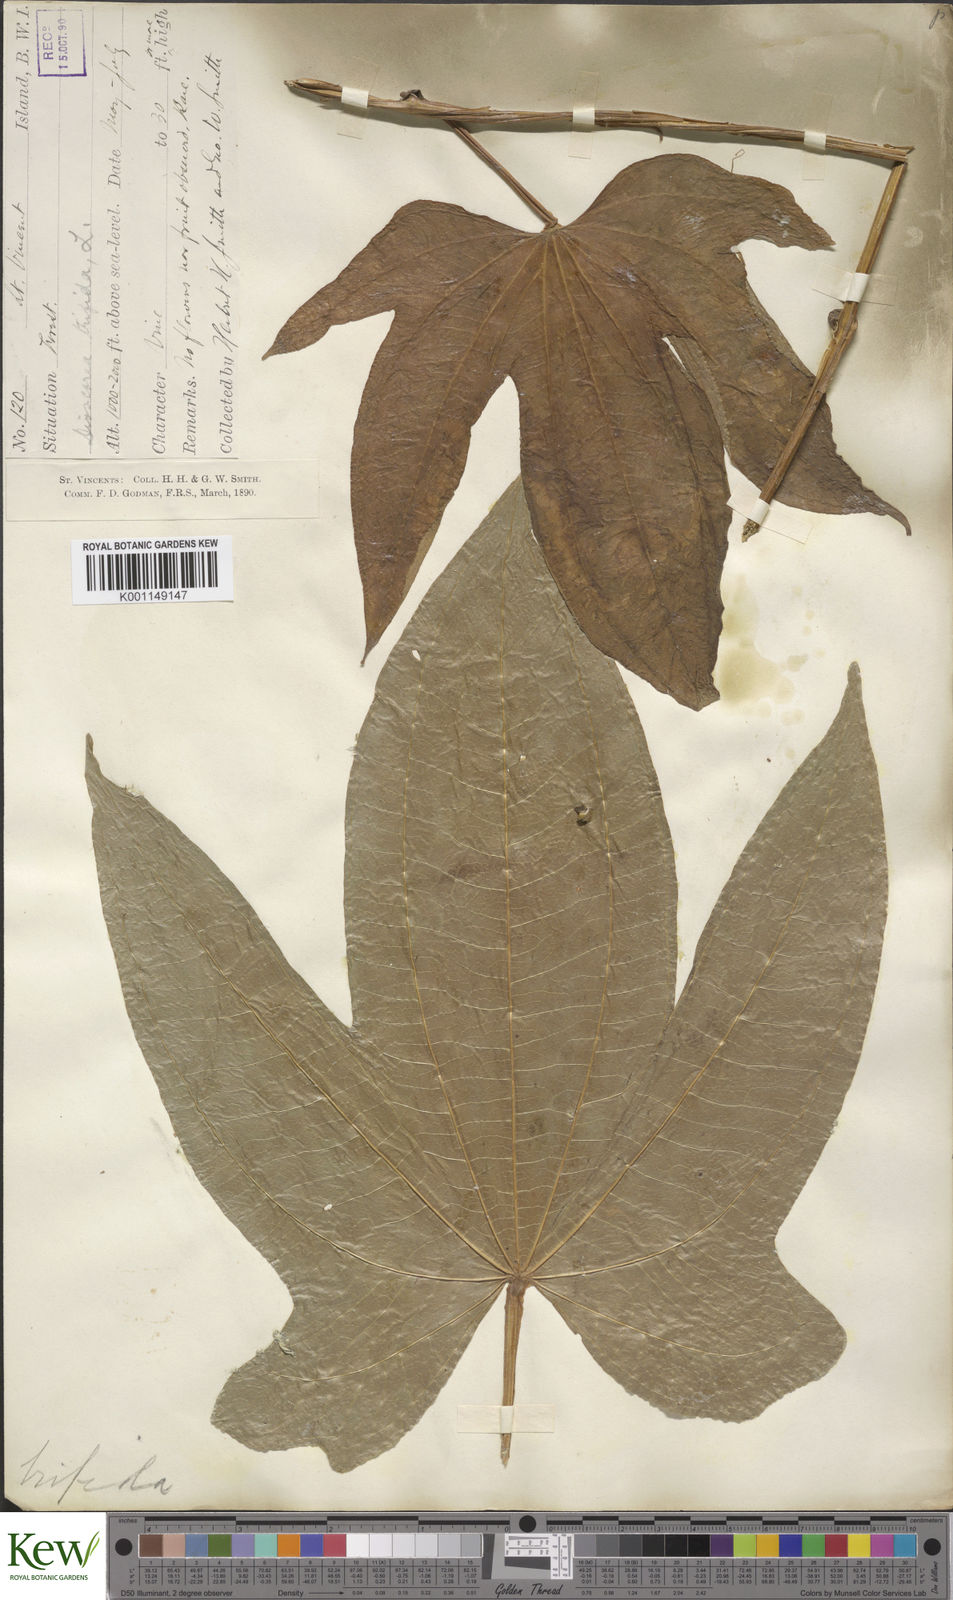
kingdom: Plantae
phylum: Tracheophyta
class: Liliopsida
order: Dioscoreales
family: Dioscoreaceae
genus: Dioscorea
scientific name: Dioscorea trifida
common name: Cush-cush
